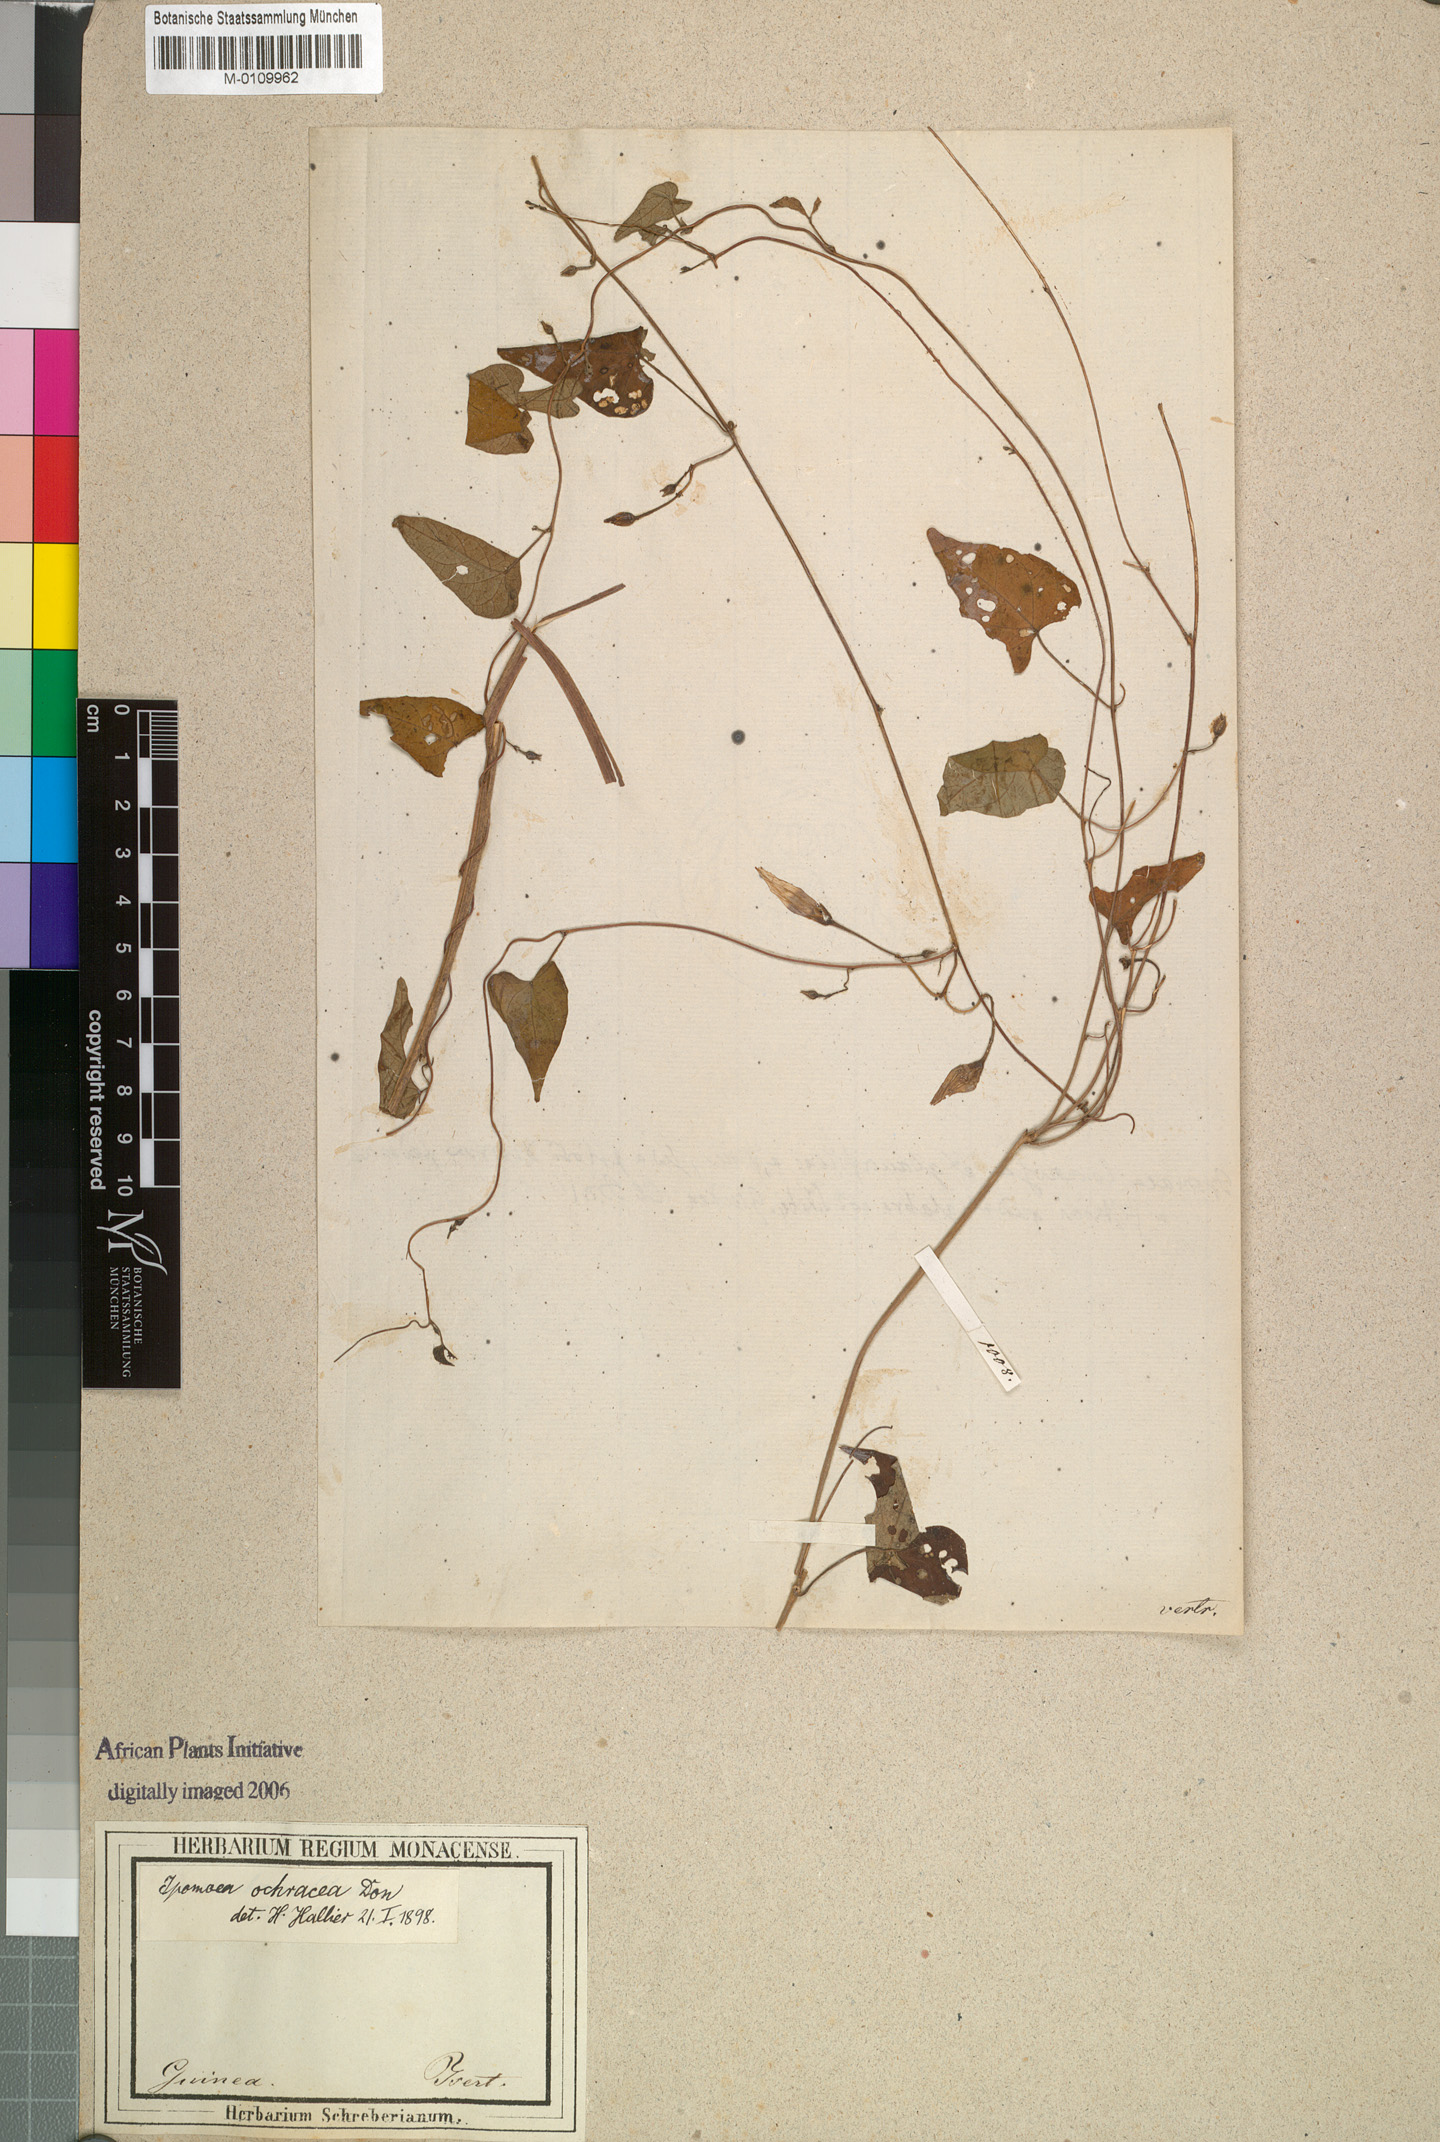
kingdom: Plantae
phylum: Tracheophyta
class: Magnoliopsida
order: Solanales
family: Convolvulaceae
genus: Ipomoea
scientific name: Ipomoea ochracea
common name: Fence morning-glory
